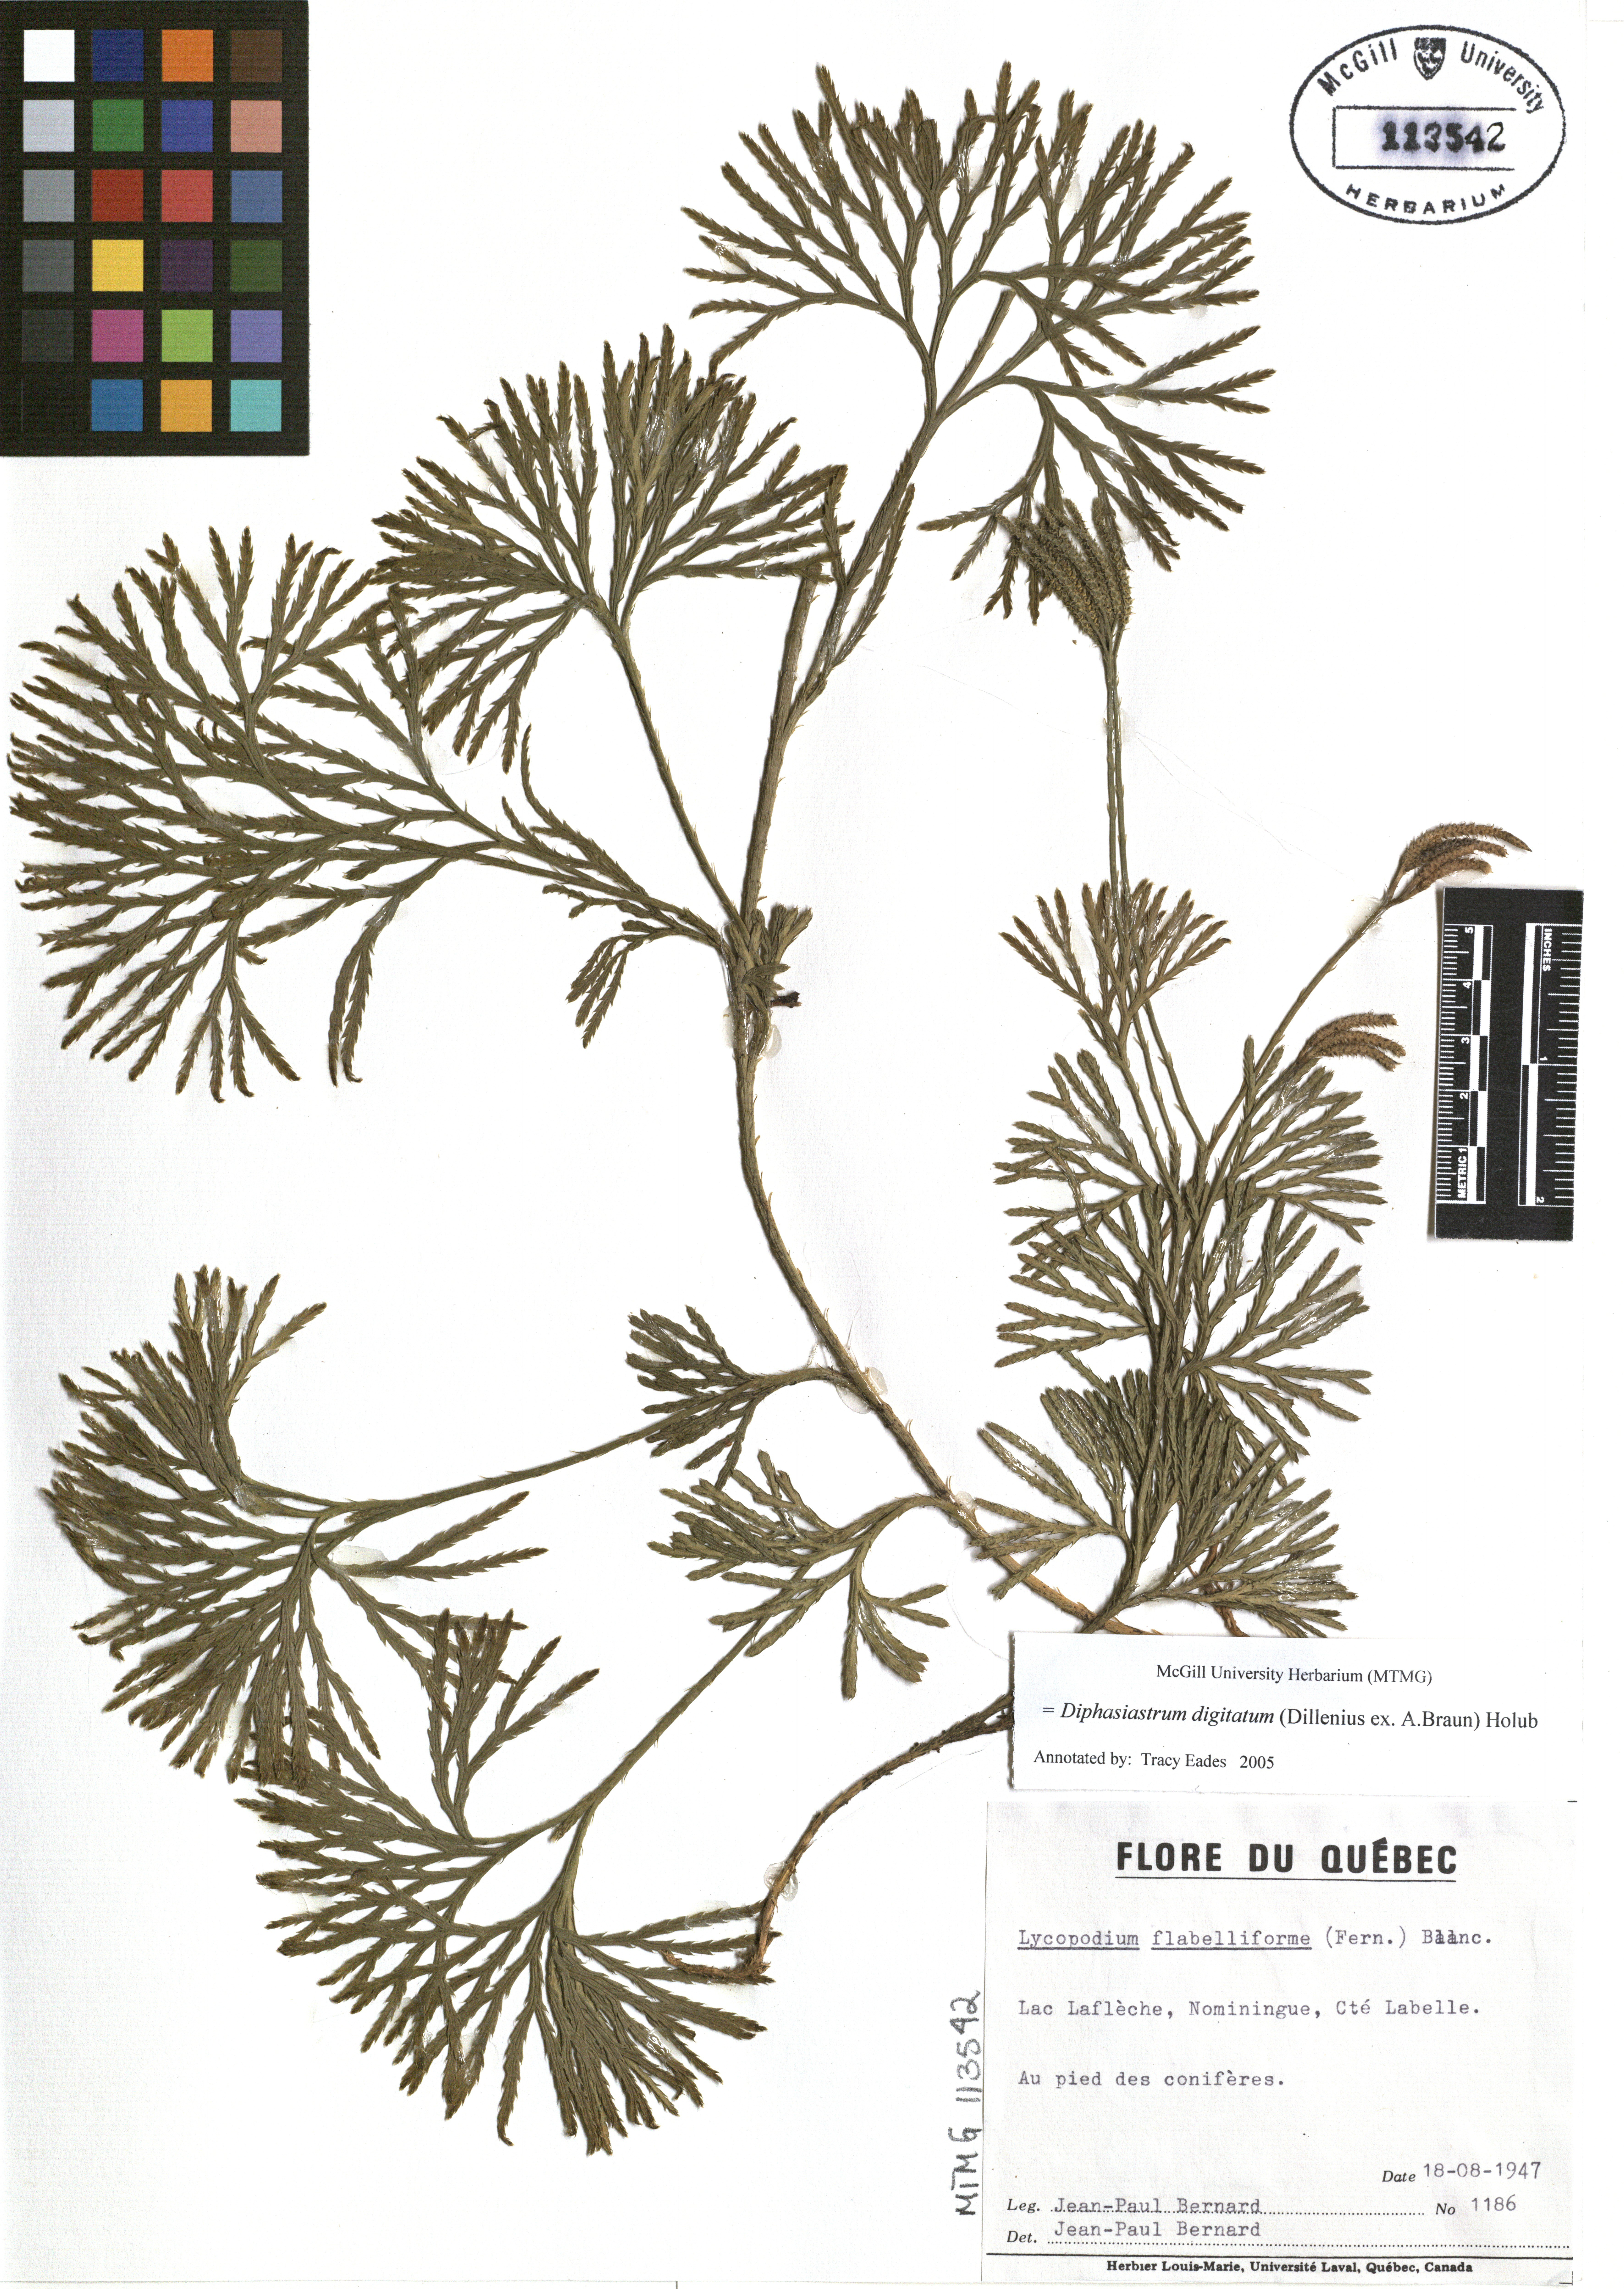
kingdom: Plantae
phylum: Tracheophyta
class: Lycopodiopsida
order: Lycopodiales
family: Lycopodiaceae
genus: Diphasiastrum
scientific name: Diphasiastrum digitatum
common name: Southern running-pine
